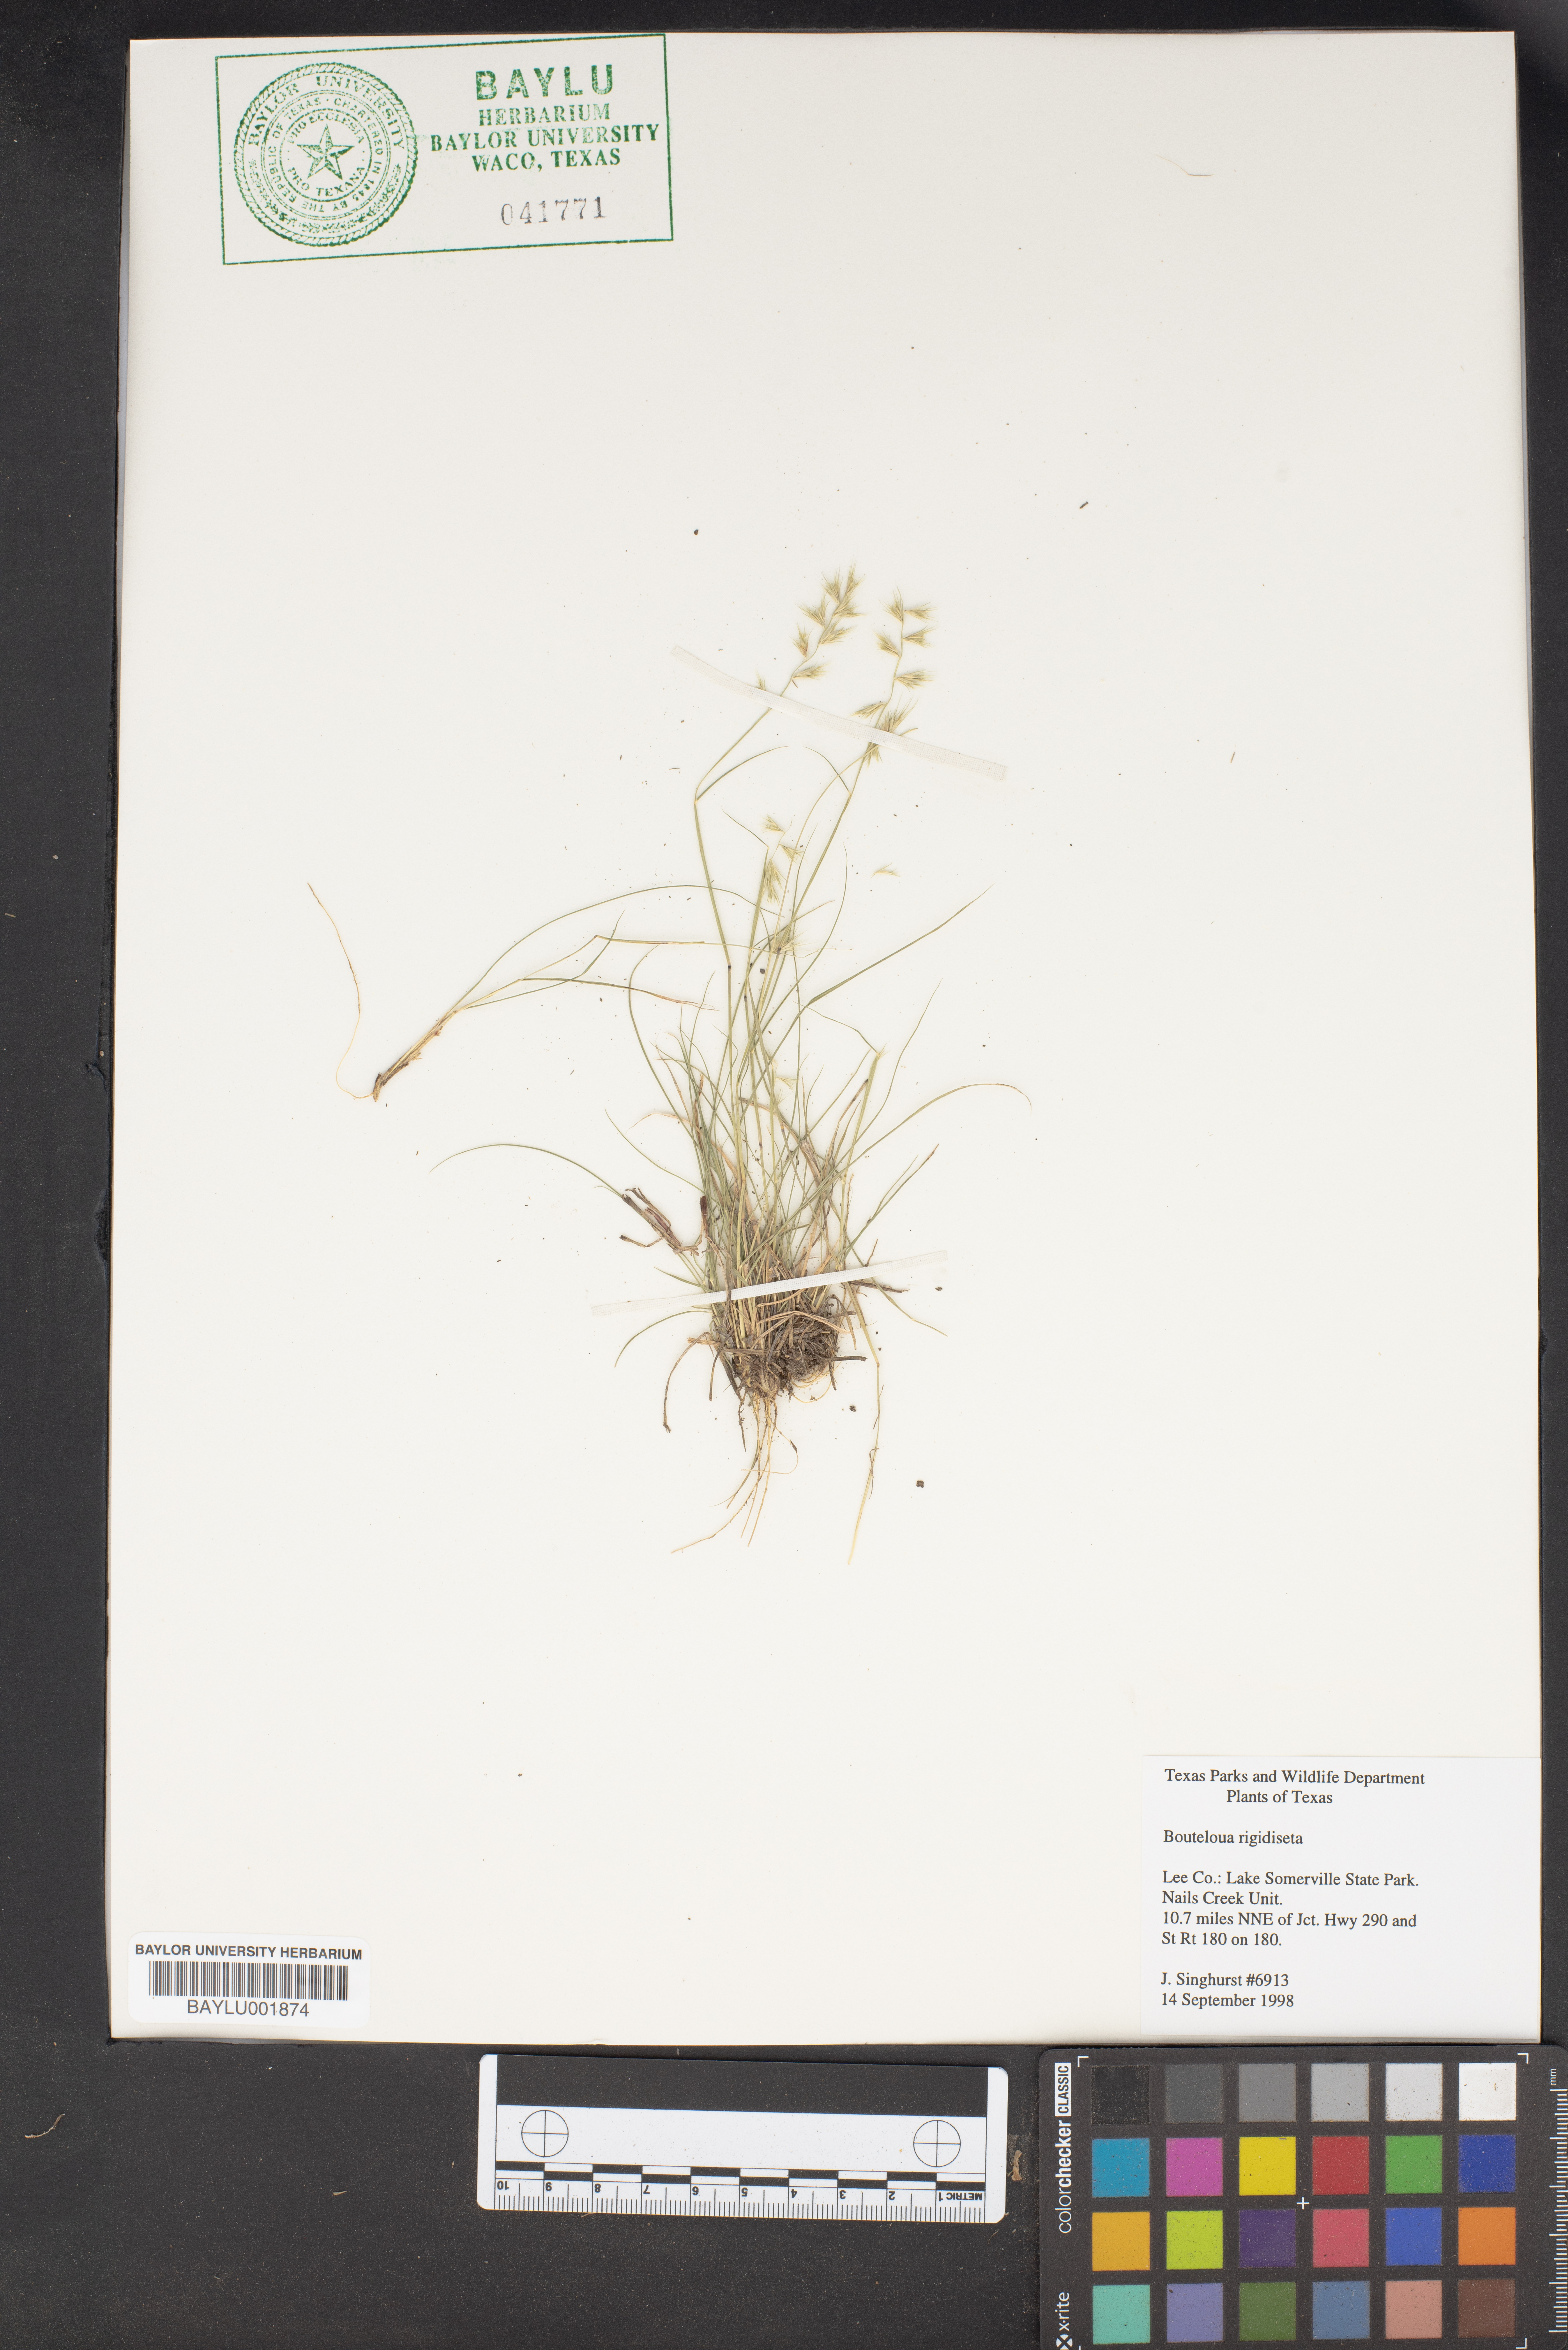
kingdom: Plantae
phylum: Tracheophyta
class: Liliopsida
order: Poales
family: Poaceae
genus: Bouteloua
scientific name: Bouteloua rigidiseta
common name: Texas grama
